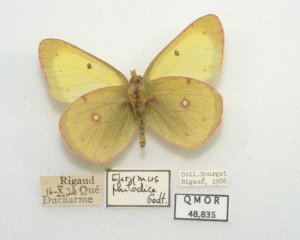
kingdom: Animalia
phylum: Arthropoda
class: Insecta
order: Lepidoptera
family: Pieridae
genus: Colias
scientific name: Colias philodice
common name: Clouded Sulphur
